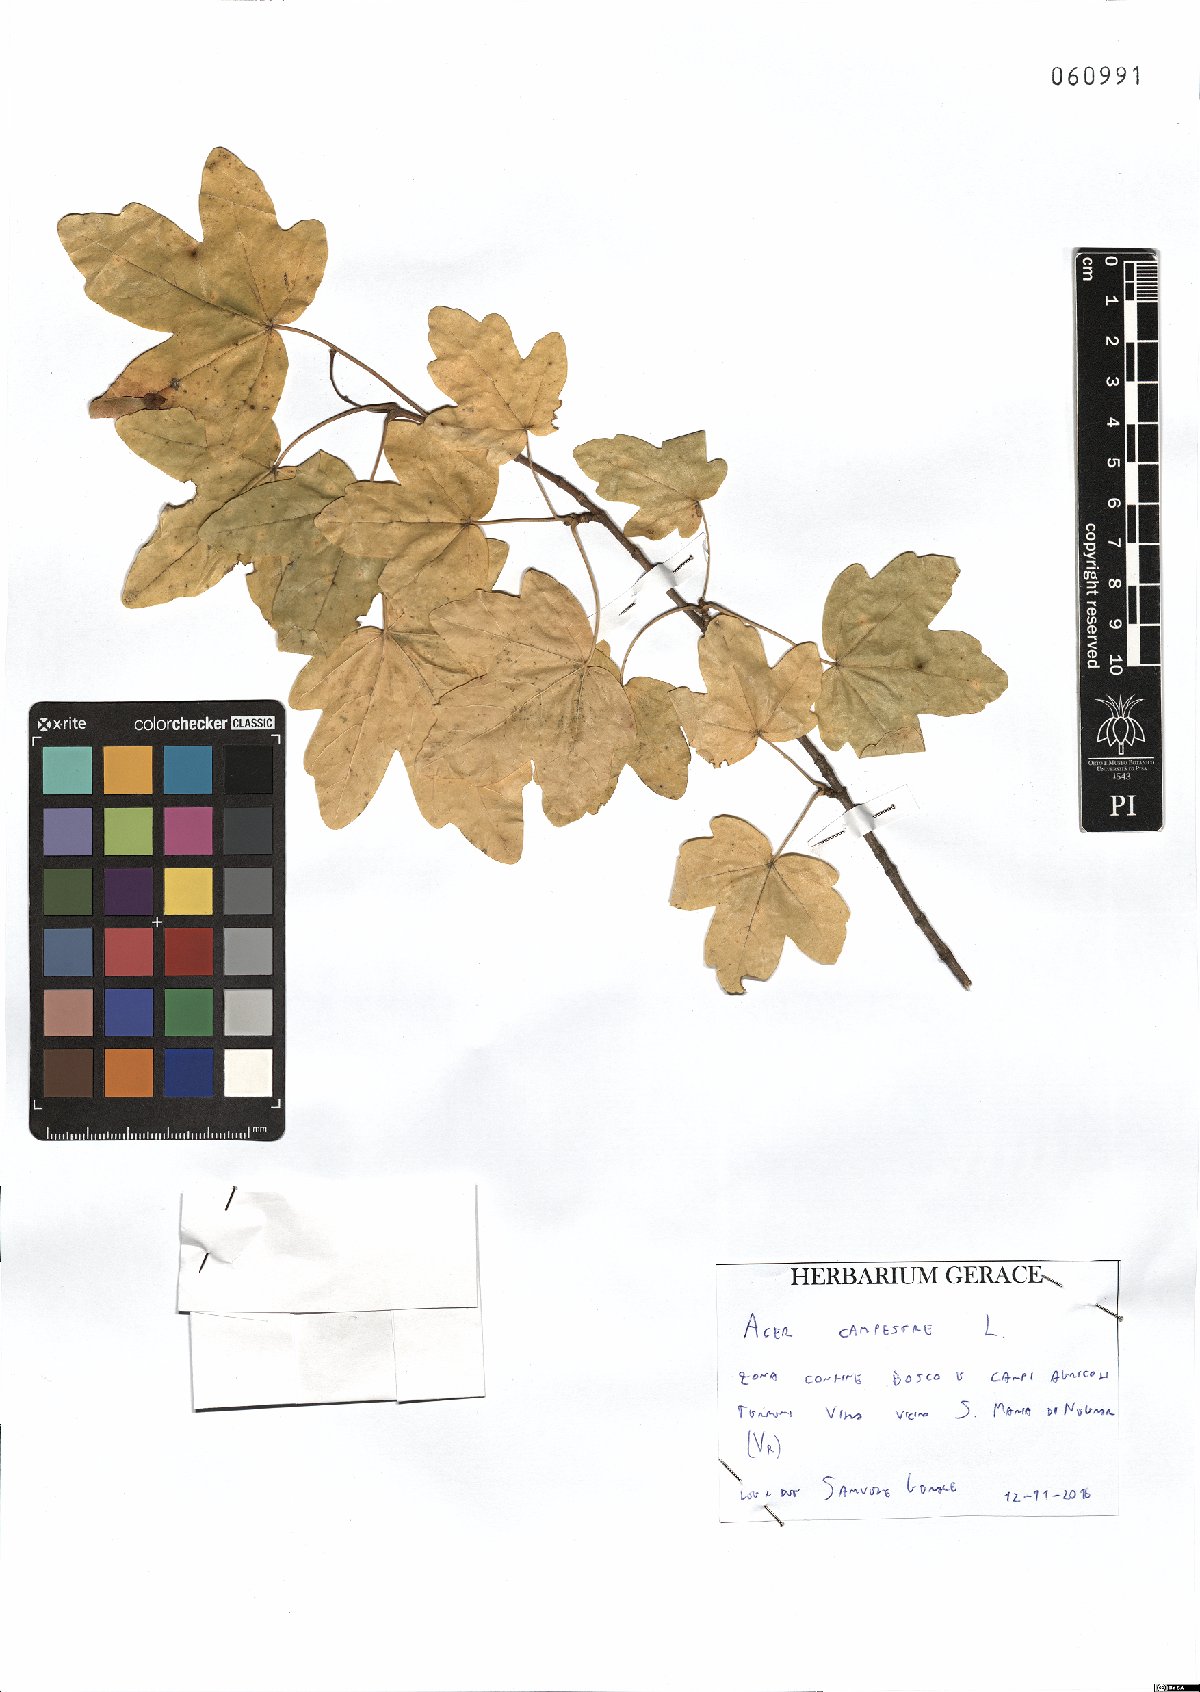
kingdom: Plantae
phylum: Tracheophyta
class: Magnoliopsida
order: Sapindales
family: Sapindaceae
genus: Acer
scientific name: Acer campestre
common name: Field maple
